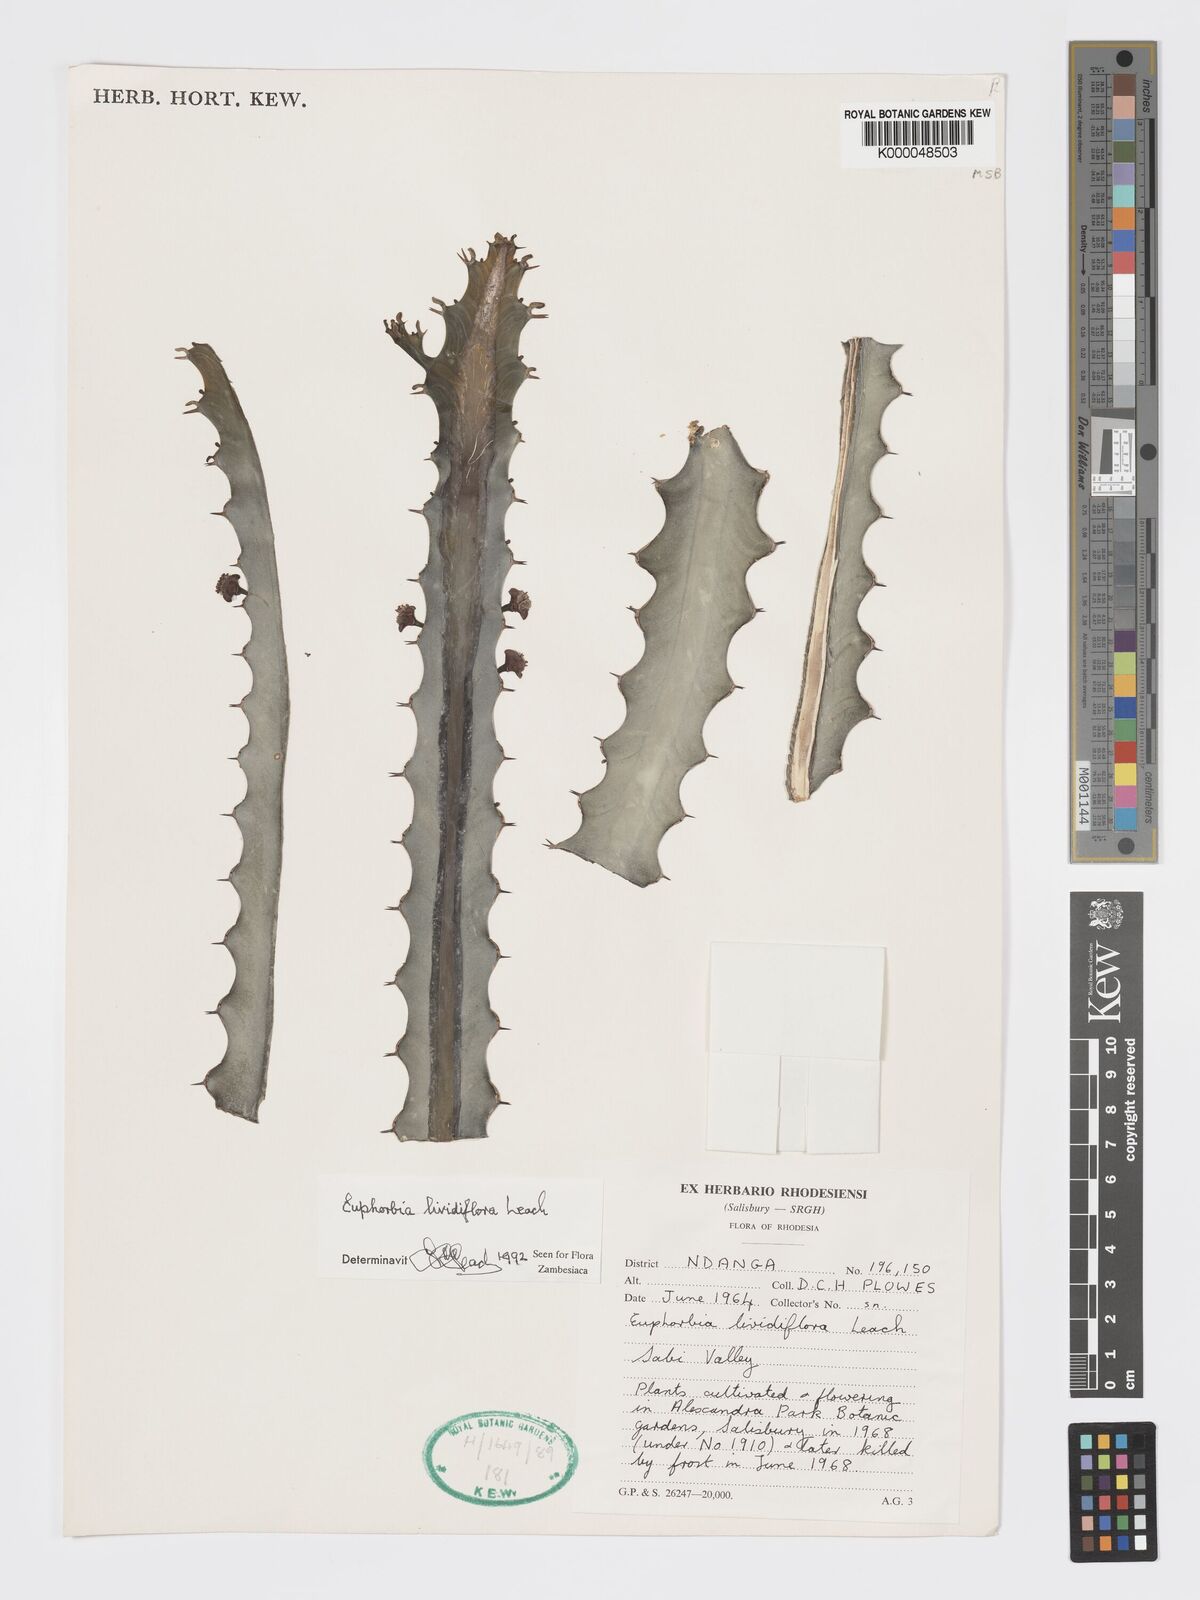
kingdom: Plantae
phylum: Tracheophyta
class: Magnoliopsida
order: Malpighiales
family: Euphorbiaceae
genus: Euphorbia
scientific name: Euphorbia lividiflora
